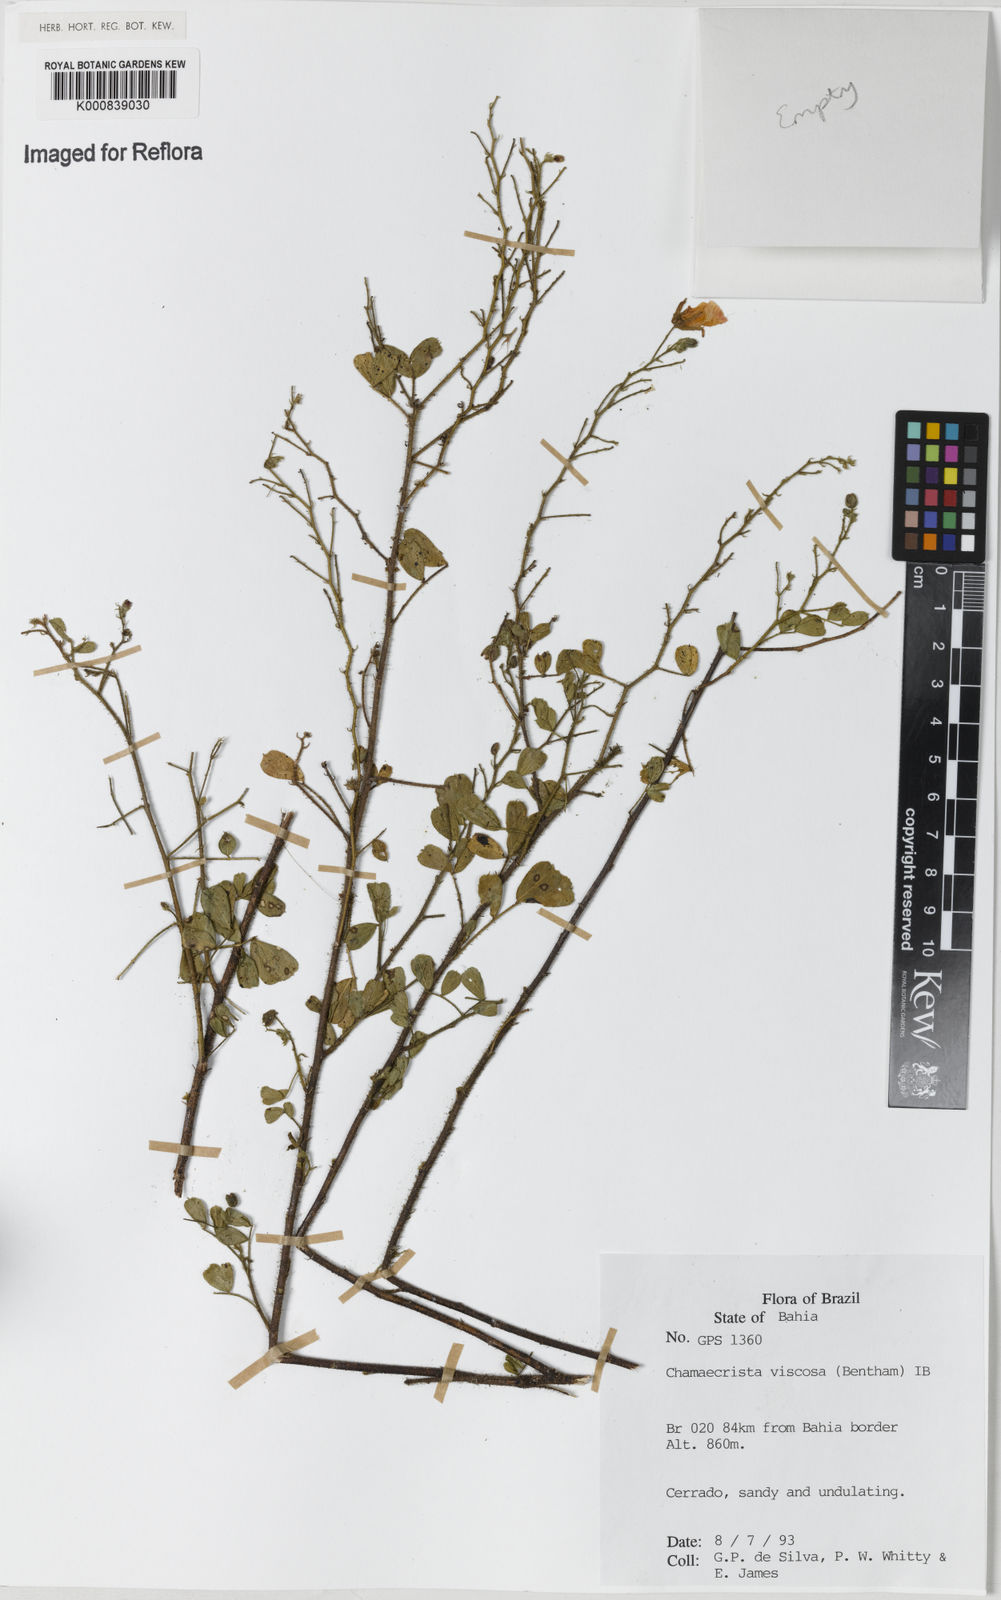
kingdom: Plantae
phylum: Tracheophyta
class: Magnoliopsida
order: Fabales
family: Fabaceae
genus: Chamaecrista
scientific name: Chamaecrista viscosa
